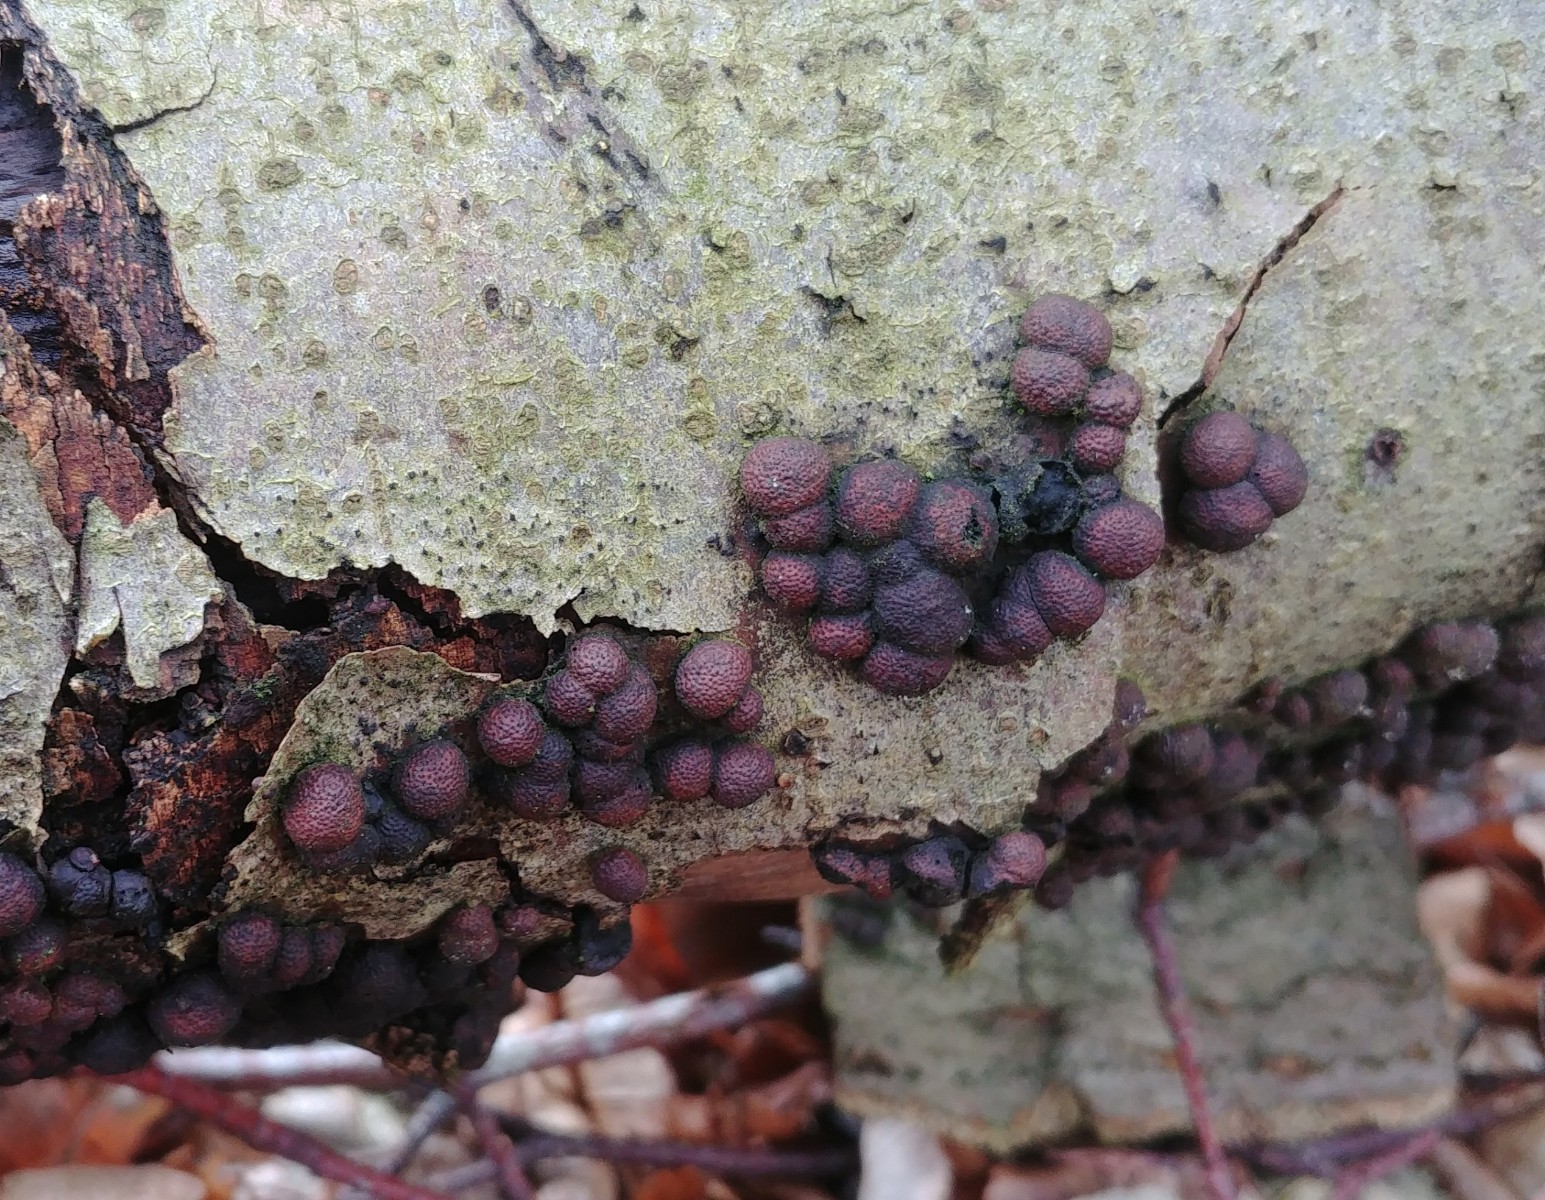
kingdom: Fungi
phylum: Ascomycota
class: Sordariomycetes
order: Xylariales
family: Hypoxylaceae
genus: Hypoxylon
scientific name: Hypoxylon fragiforme
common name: kuljordbær
